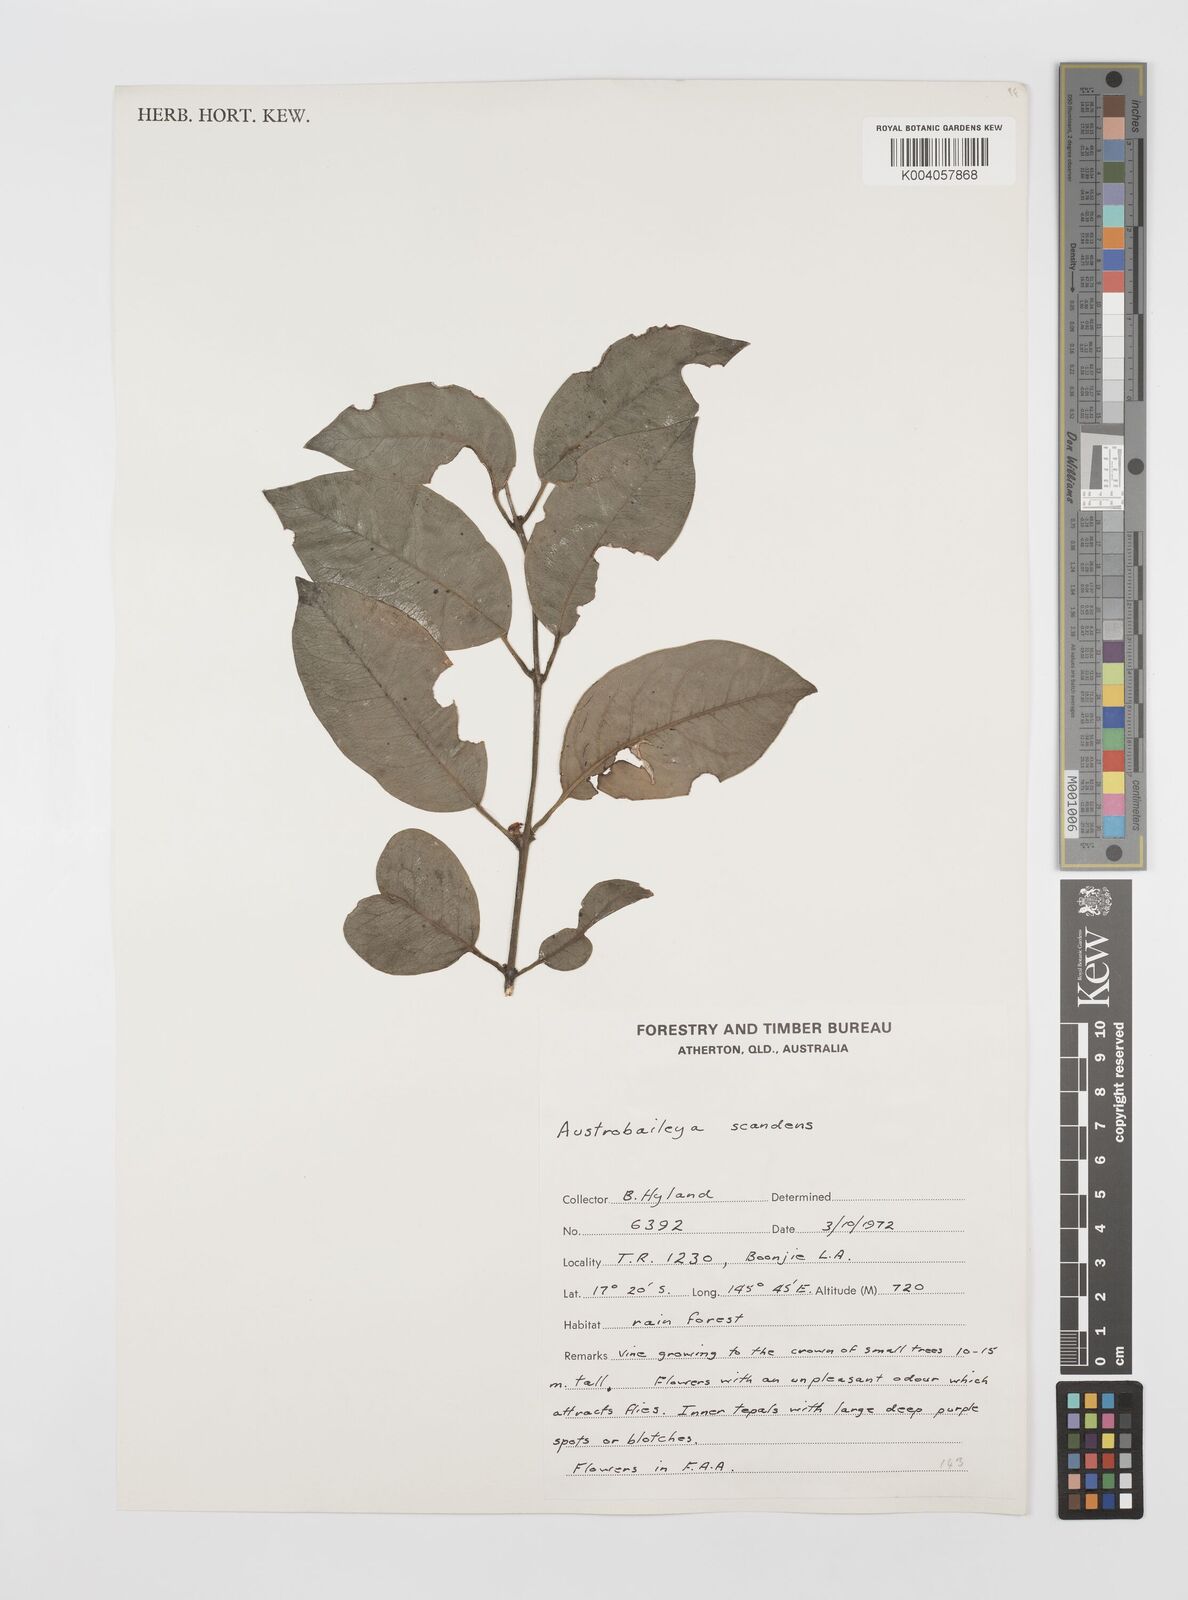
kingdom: Plantae
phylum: Tracheophyta
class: Magnoliopsida
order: Austrobaileyales
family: Austrobaileyaceae
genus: Austrobaileya
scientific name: Austrobaileya scandens
